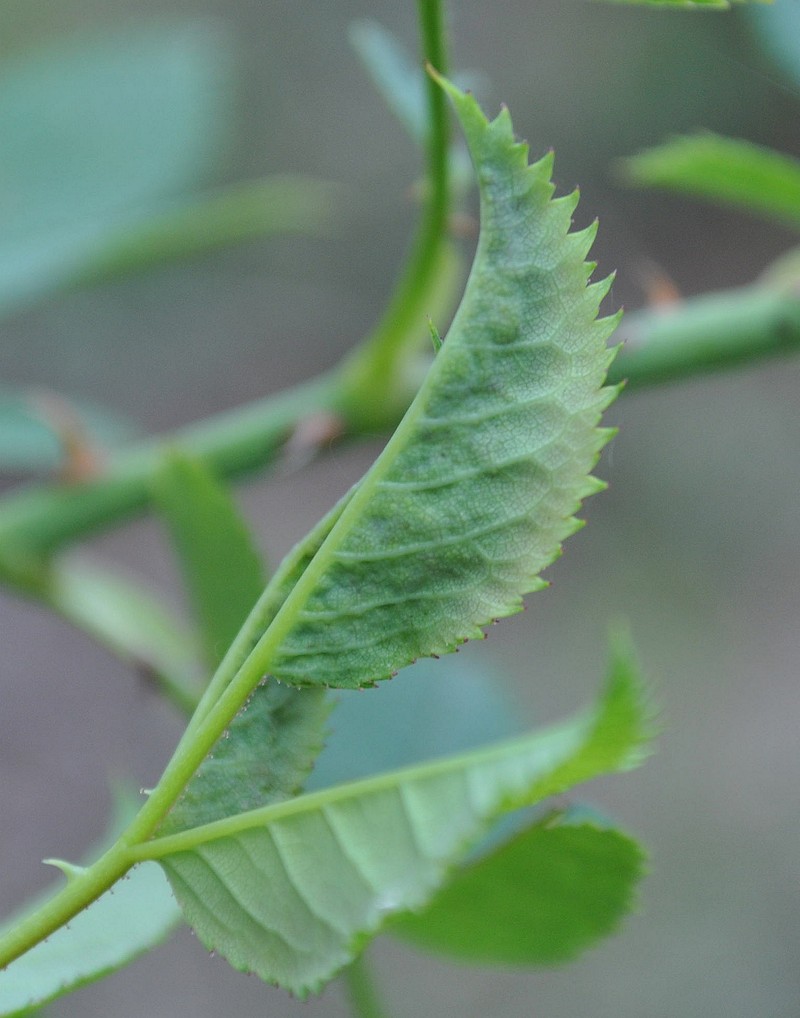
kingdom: Animalia
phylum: Arthropoda
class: Insecta
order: Diptera
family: Cecidomyiidae
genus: Dasineura
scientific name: Dasineura rosarum
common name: Gall midge
